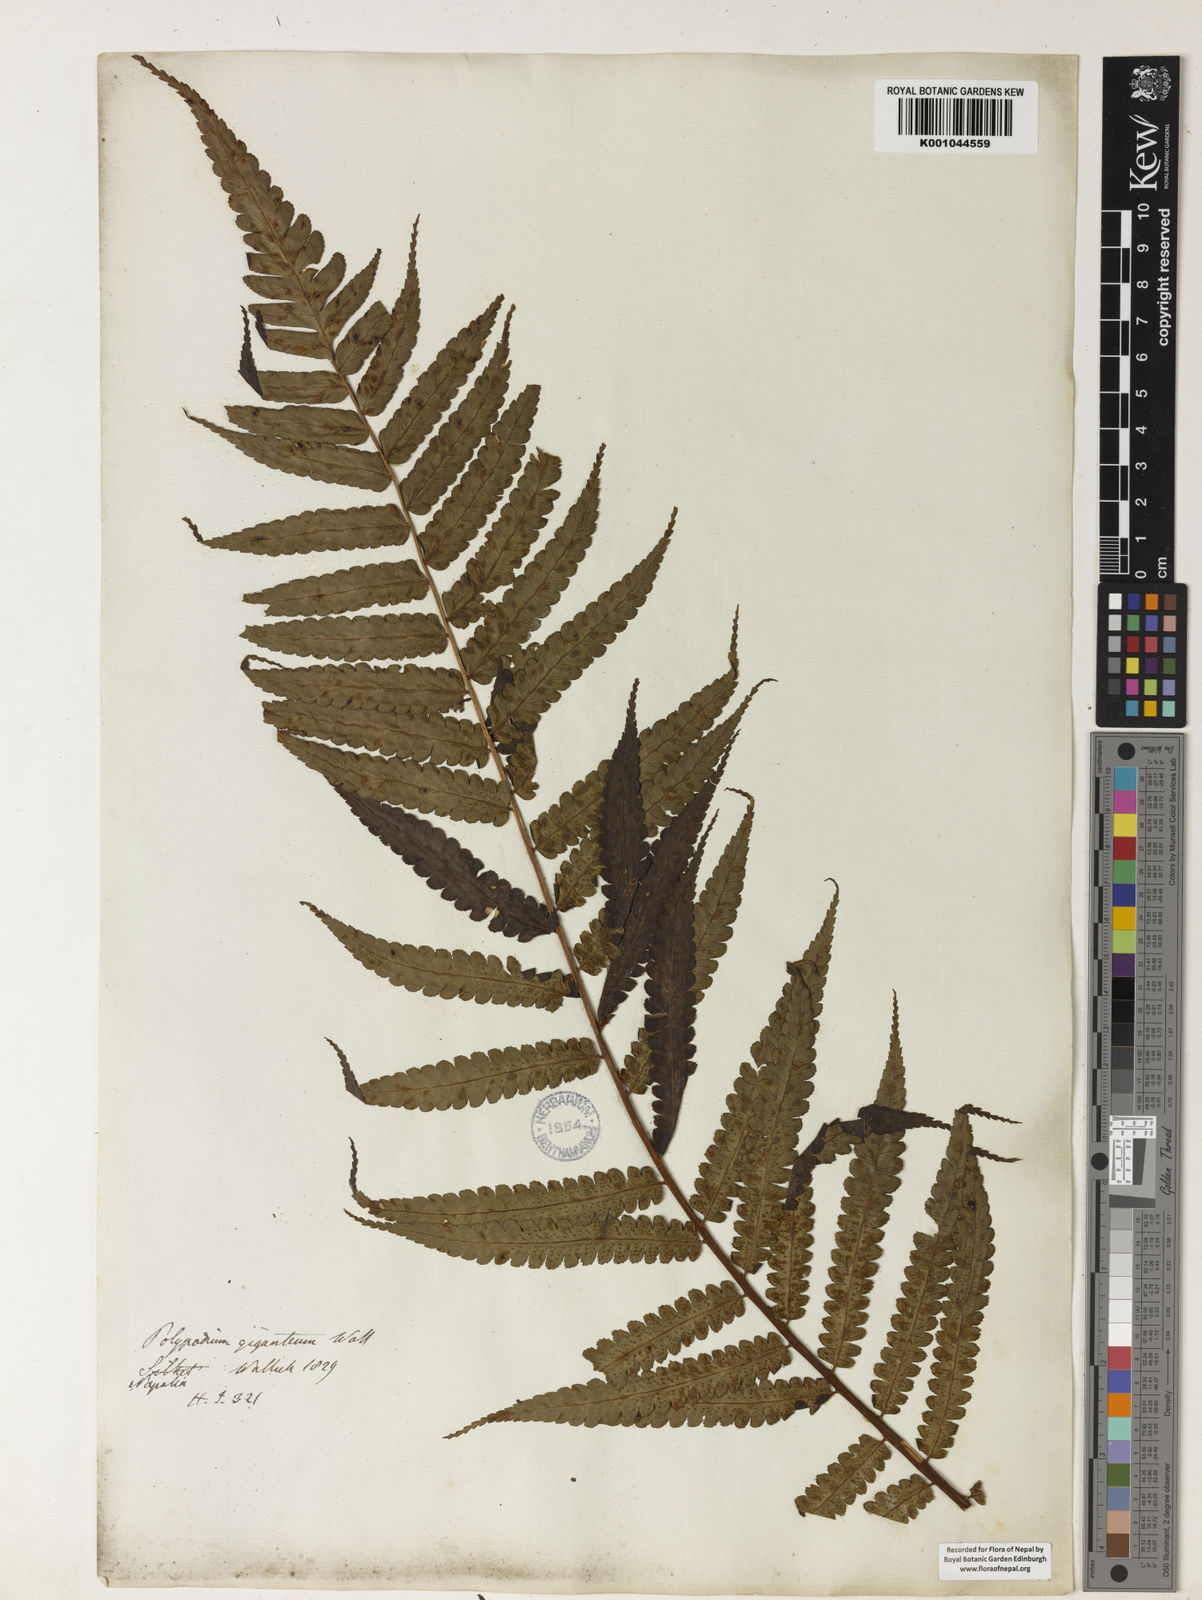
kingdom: Plantae
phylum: Tracheophyta
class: Polypodiopsida
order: Cyatheales
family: Cyatheaceae
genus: Gymnosphaera
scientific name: Gymnosphaera gigantea
